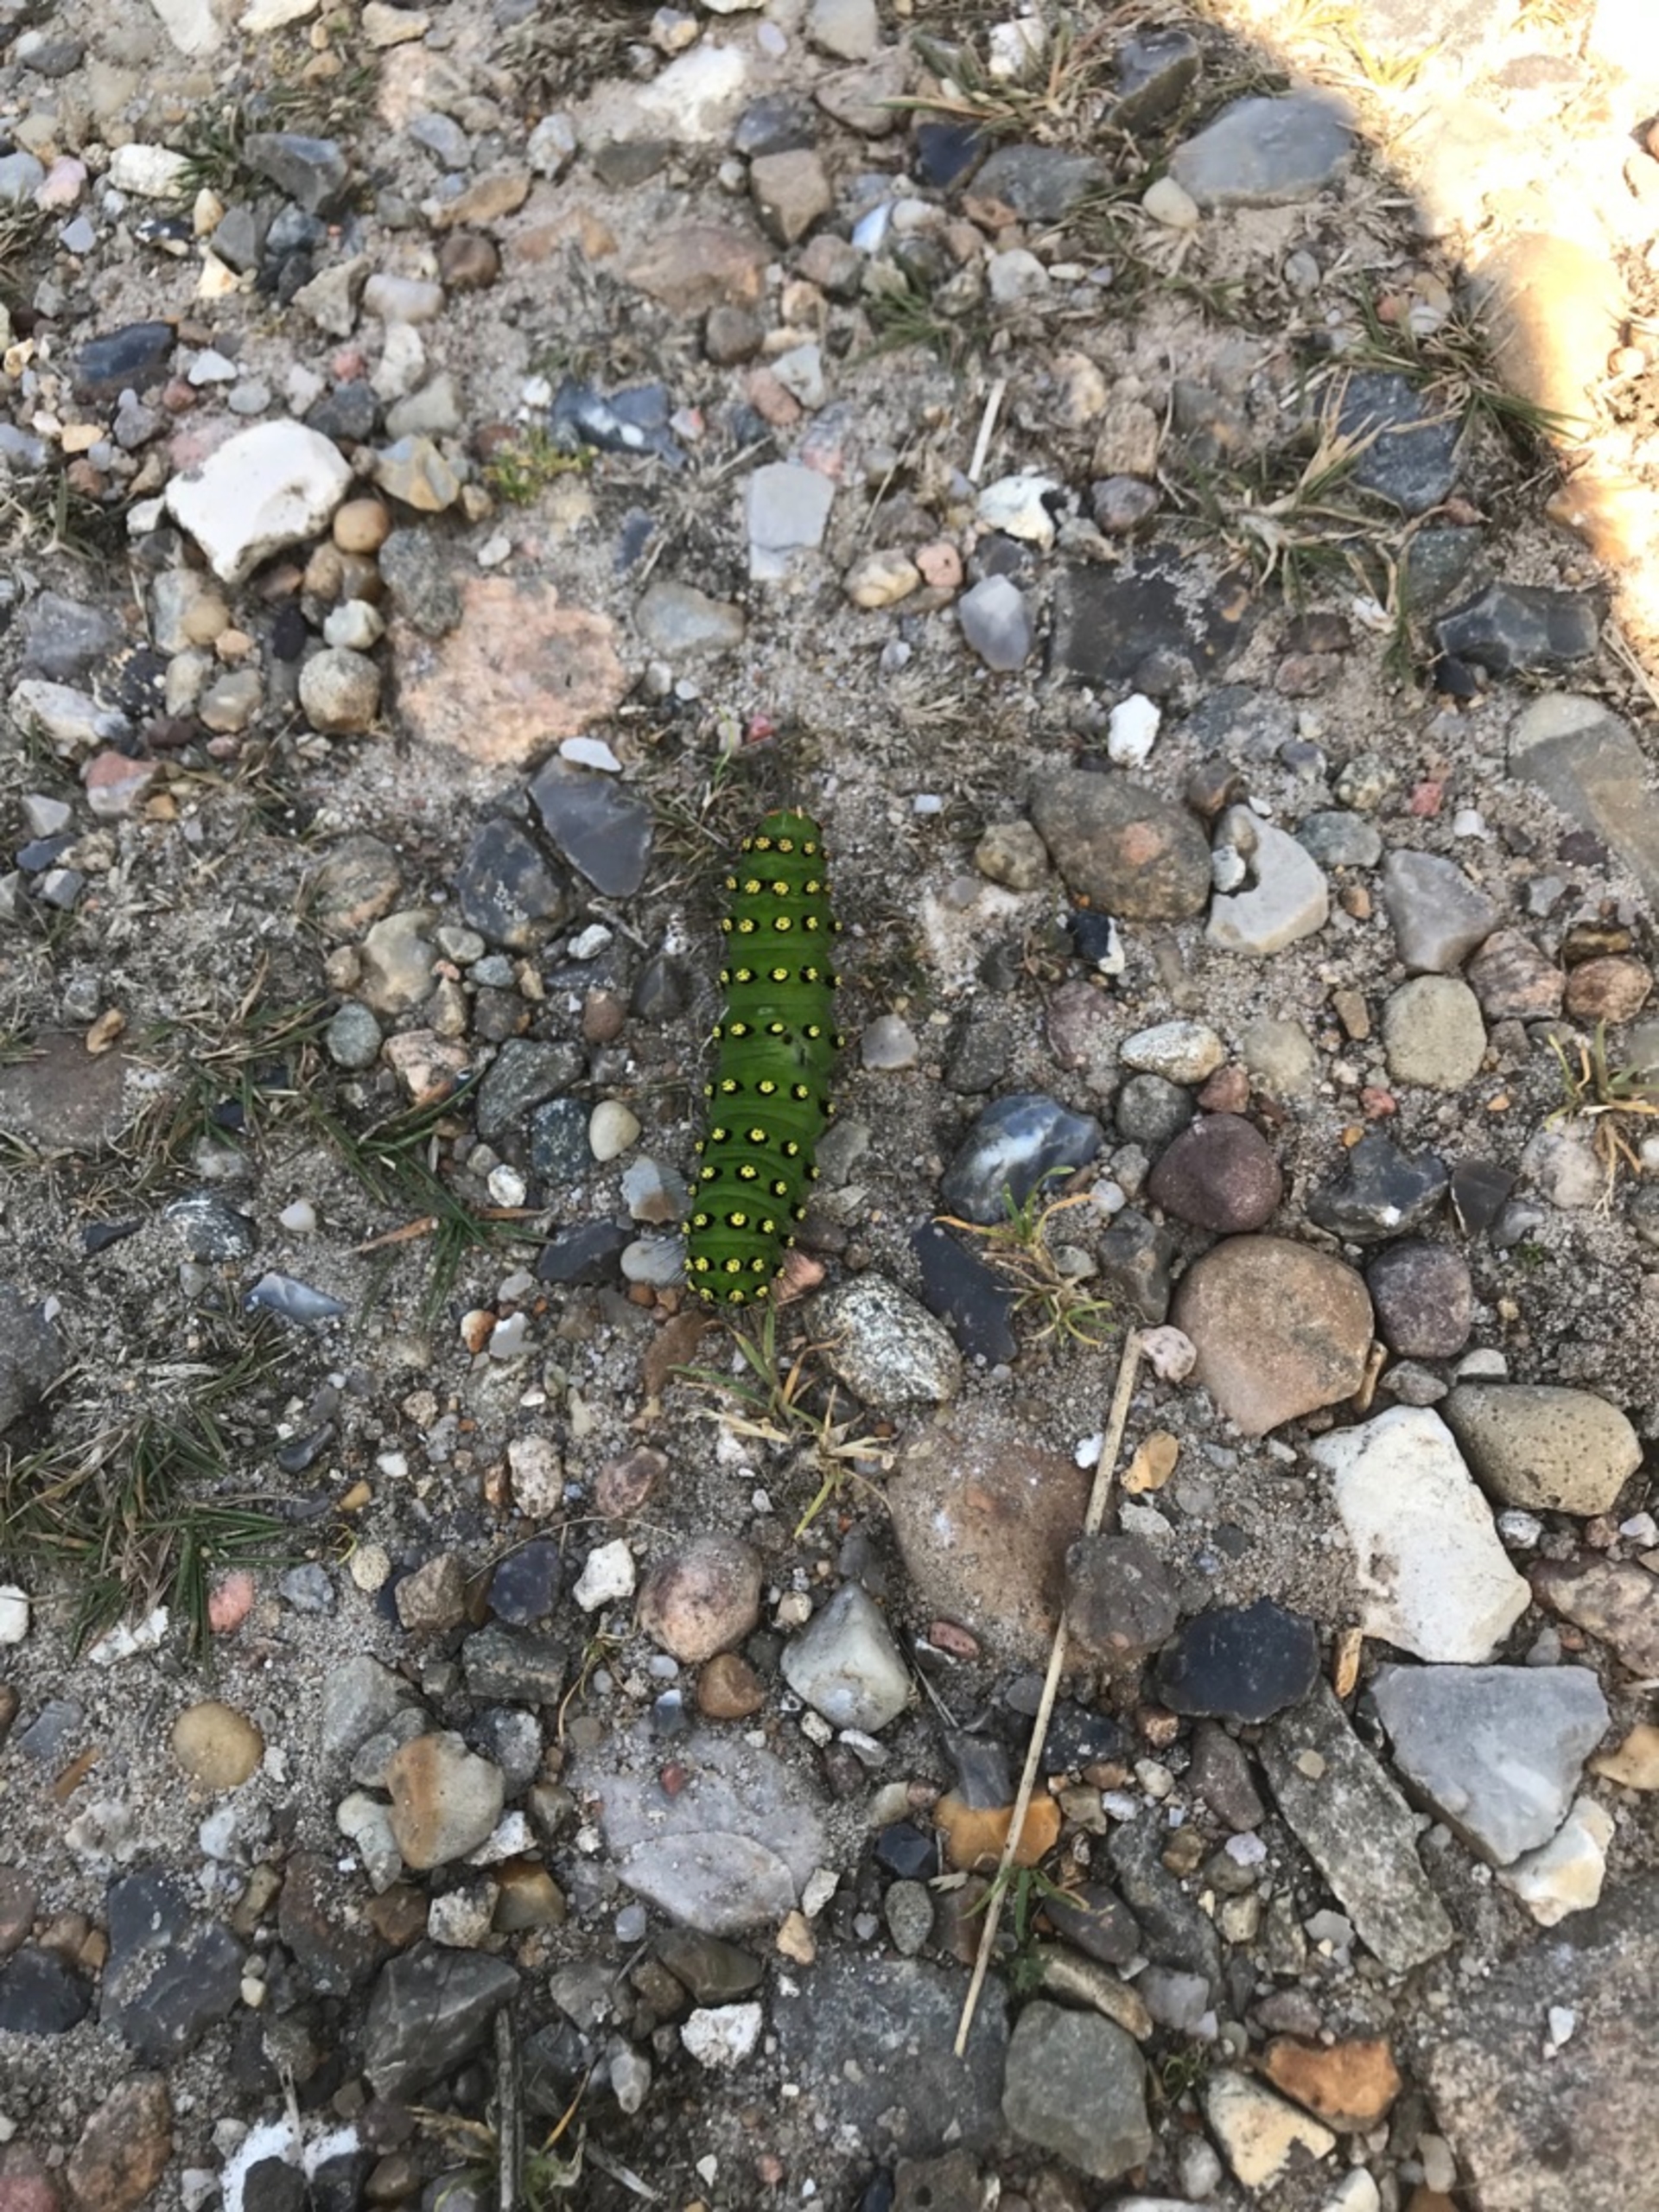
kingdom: Animalia
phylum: Arthropoda
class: Insecta
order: Lepidoptera
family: Saturniidae
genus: Saturnia
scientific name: Saturnia pavonia
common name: Lille natpåfugleøje
